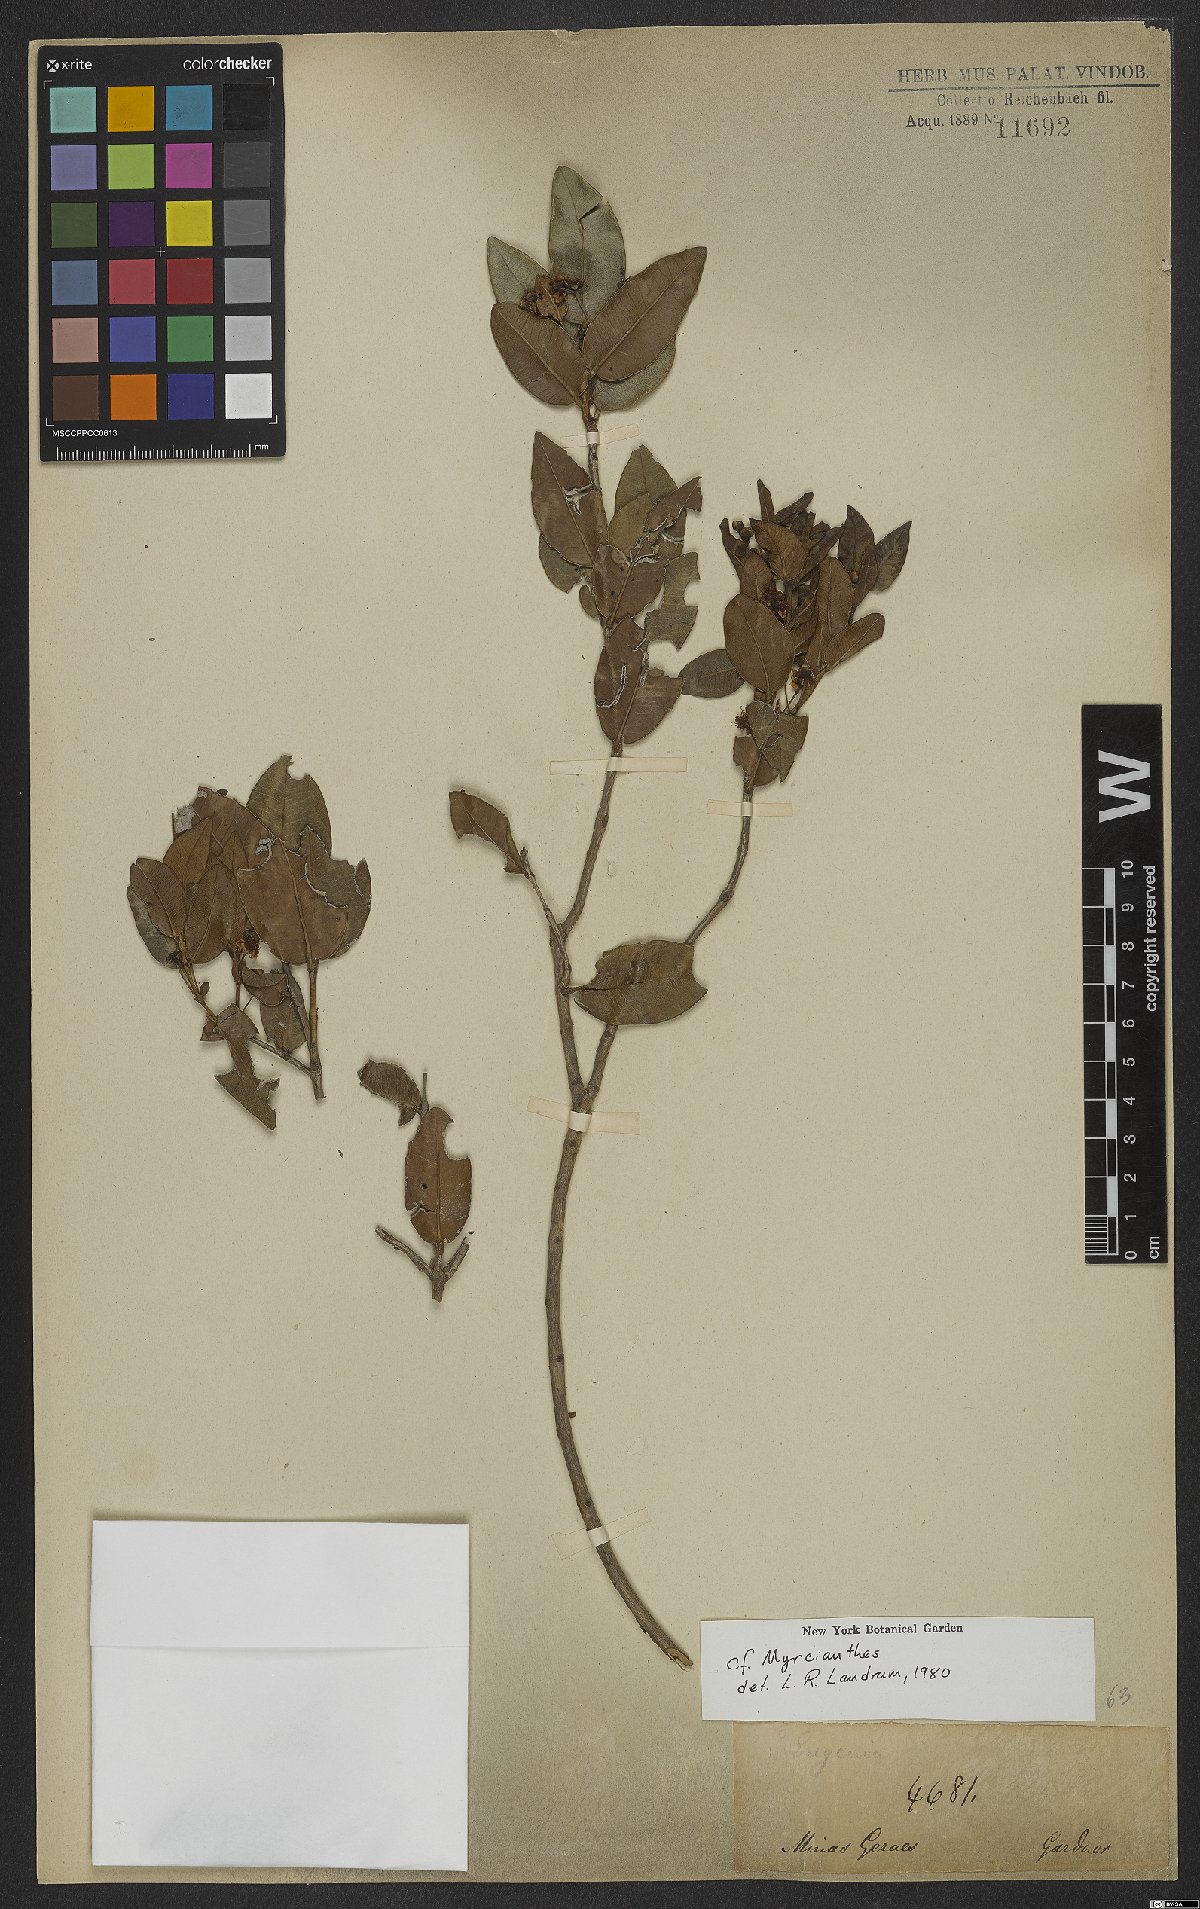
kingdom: Plantae
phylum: Tracheophyta
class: Magnoliopsida
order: Myrtales
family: Myrtaceae
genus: Myrcianthes
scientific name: Myrcianthes
